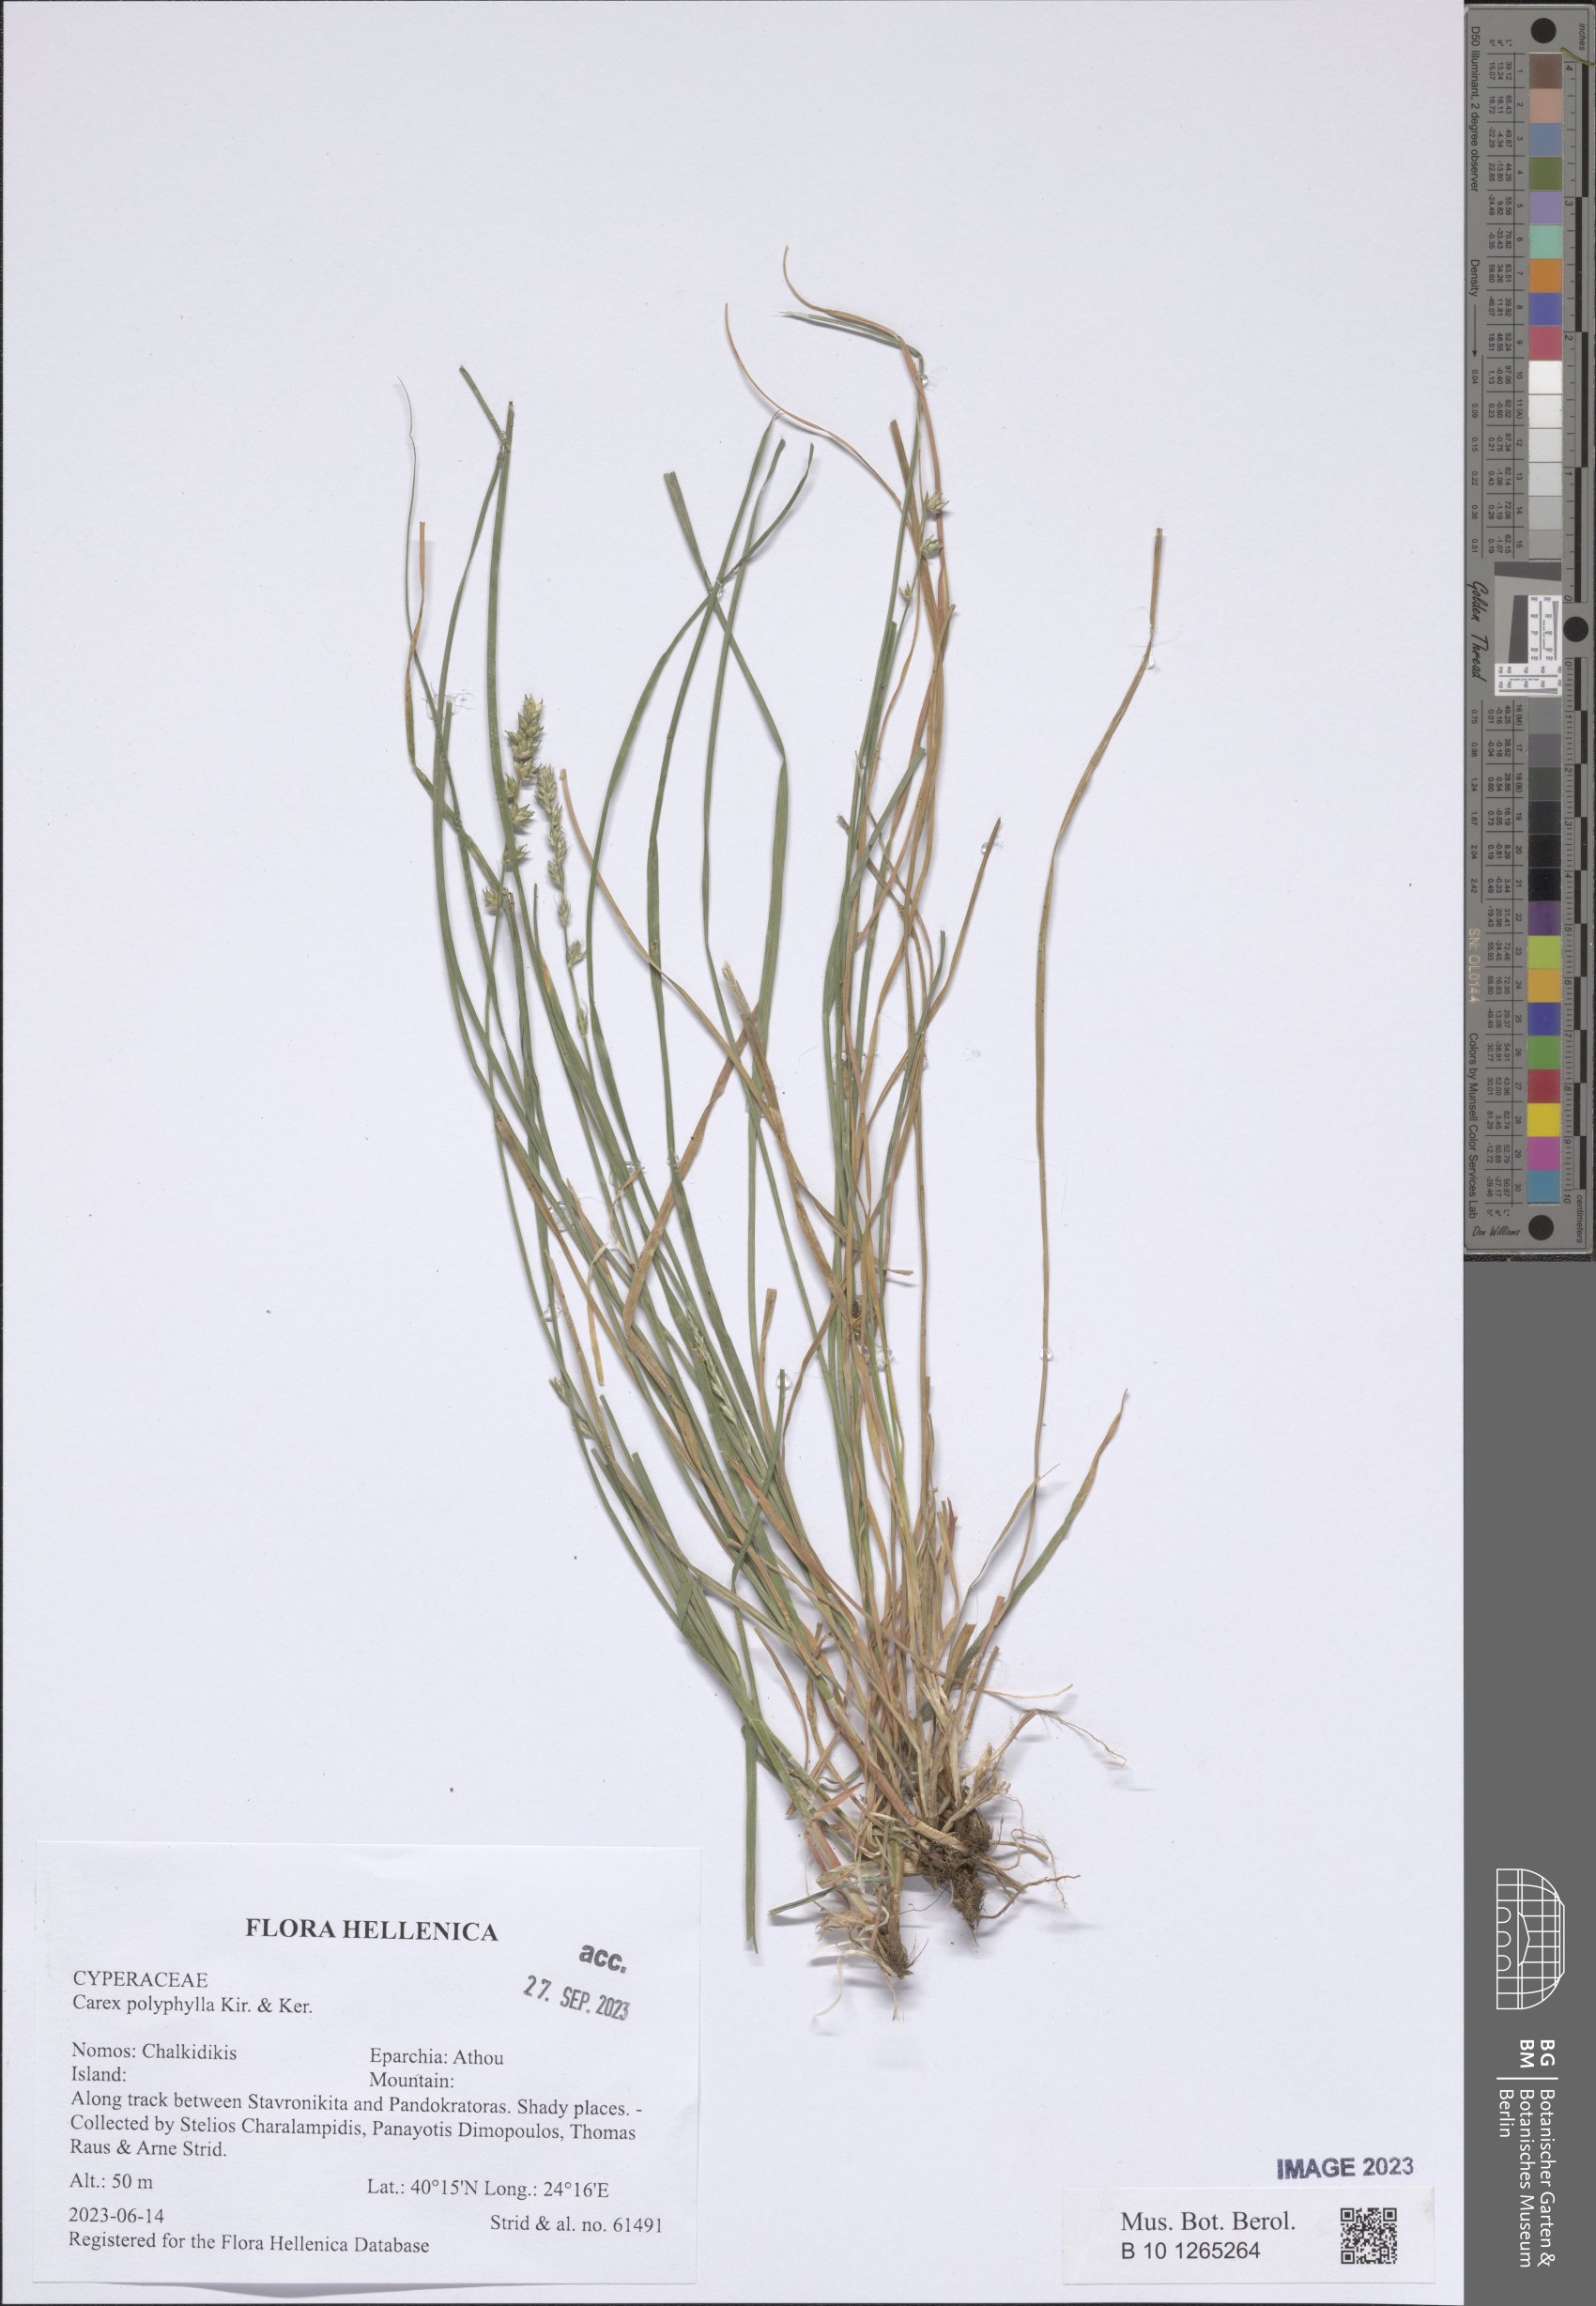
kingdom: Plantae
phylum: Tracheophyta
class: Liliopsida
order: Poales
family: Cyperaceae
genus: Carex
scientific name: Carex polyphylla
